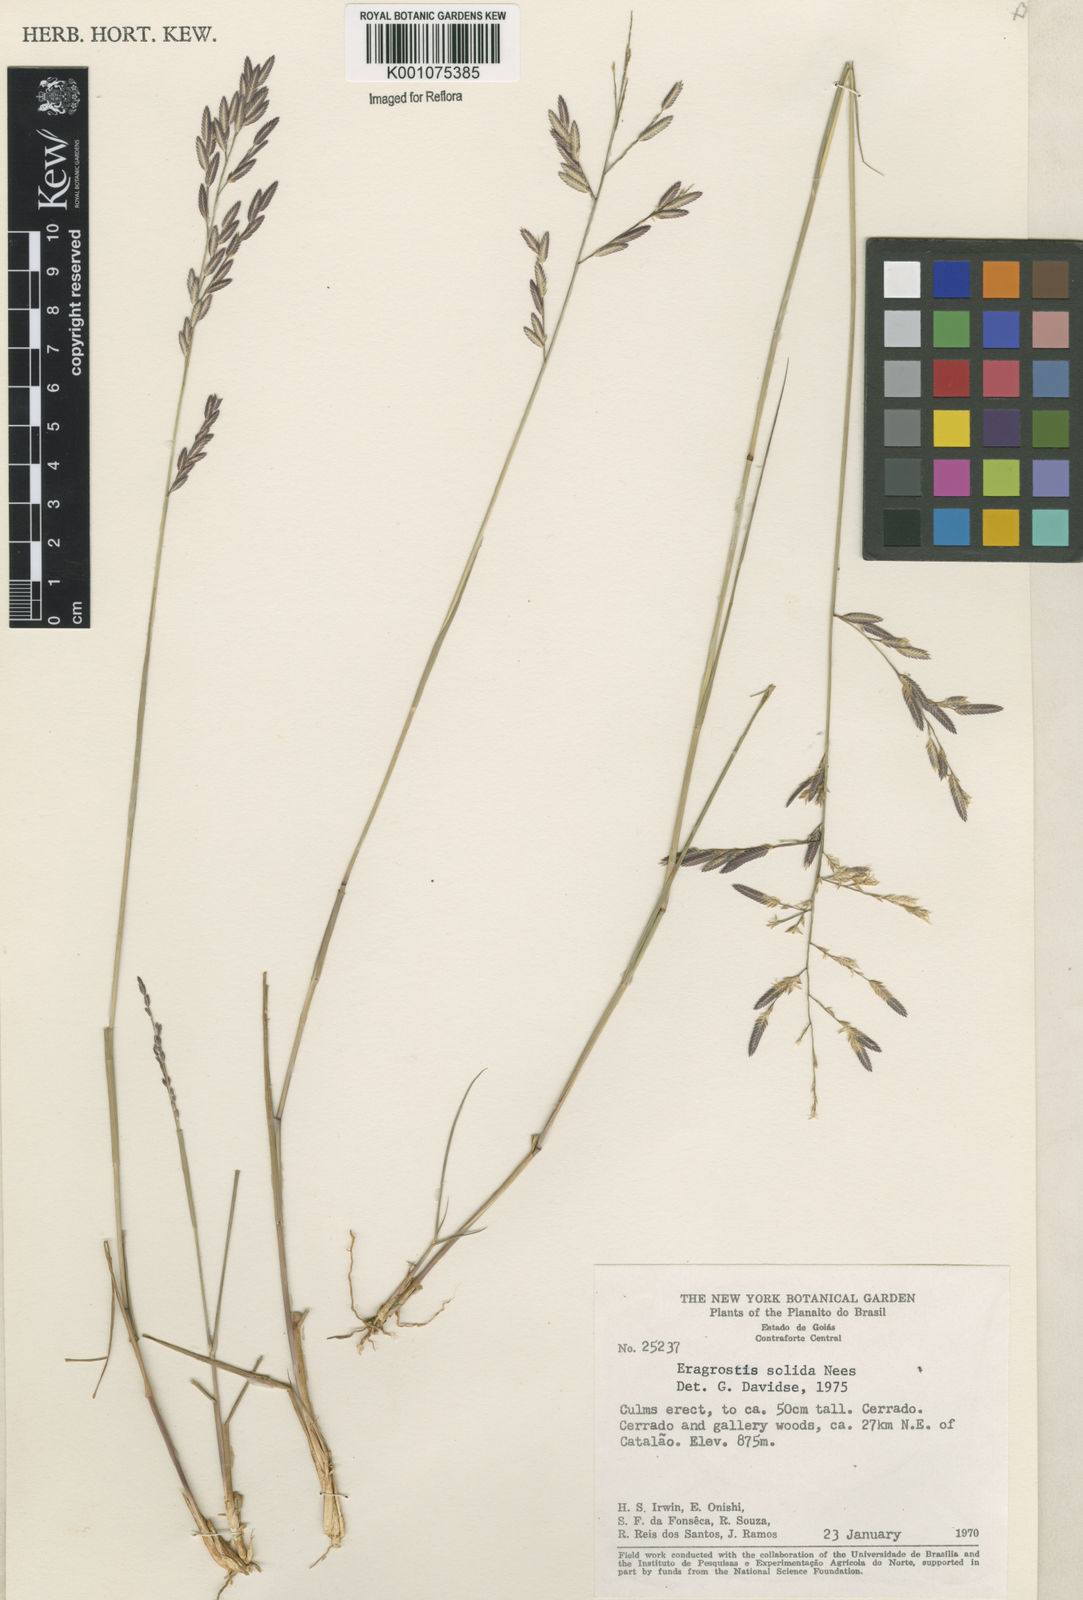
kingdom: Plantae
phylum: Tracheophyta
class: Liliopsida
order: Poales
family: Poaceae
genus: Eragrostis
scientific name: Eragrostis solida
